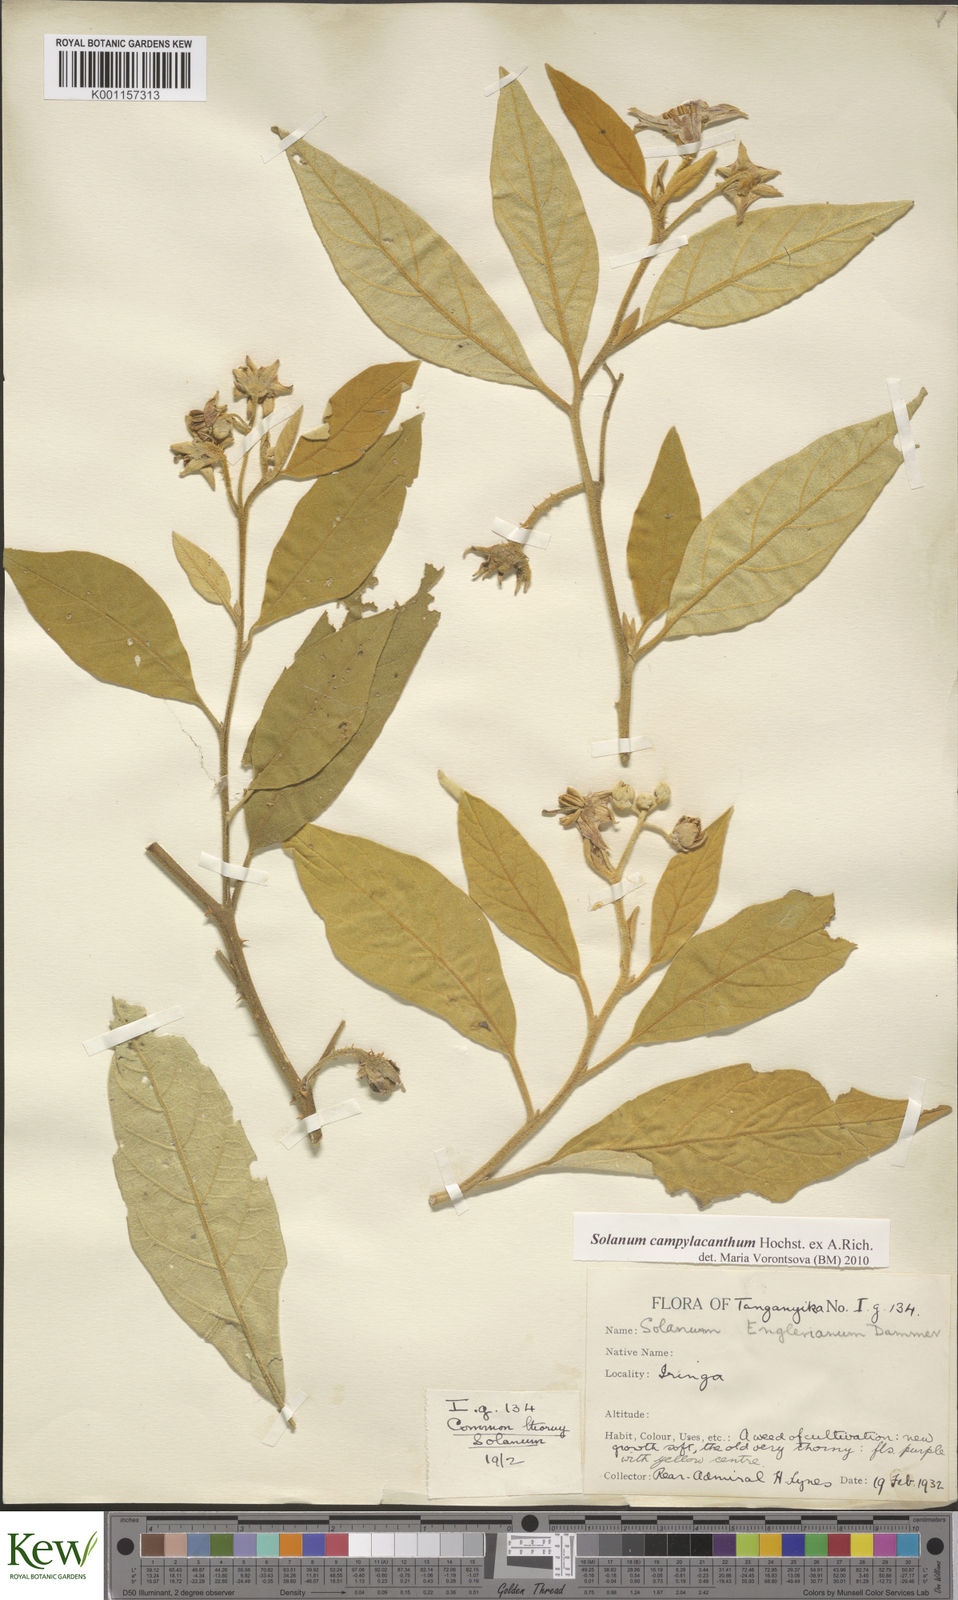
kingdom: Plantae
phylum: Tracheophyta
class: Magnoliopsida
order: Solanales
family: Solanaceae
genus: Solanum
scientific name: Solanum campylacanthum
